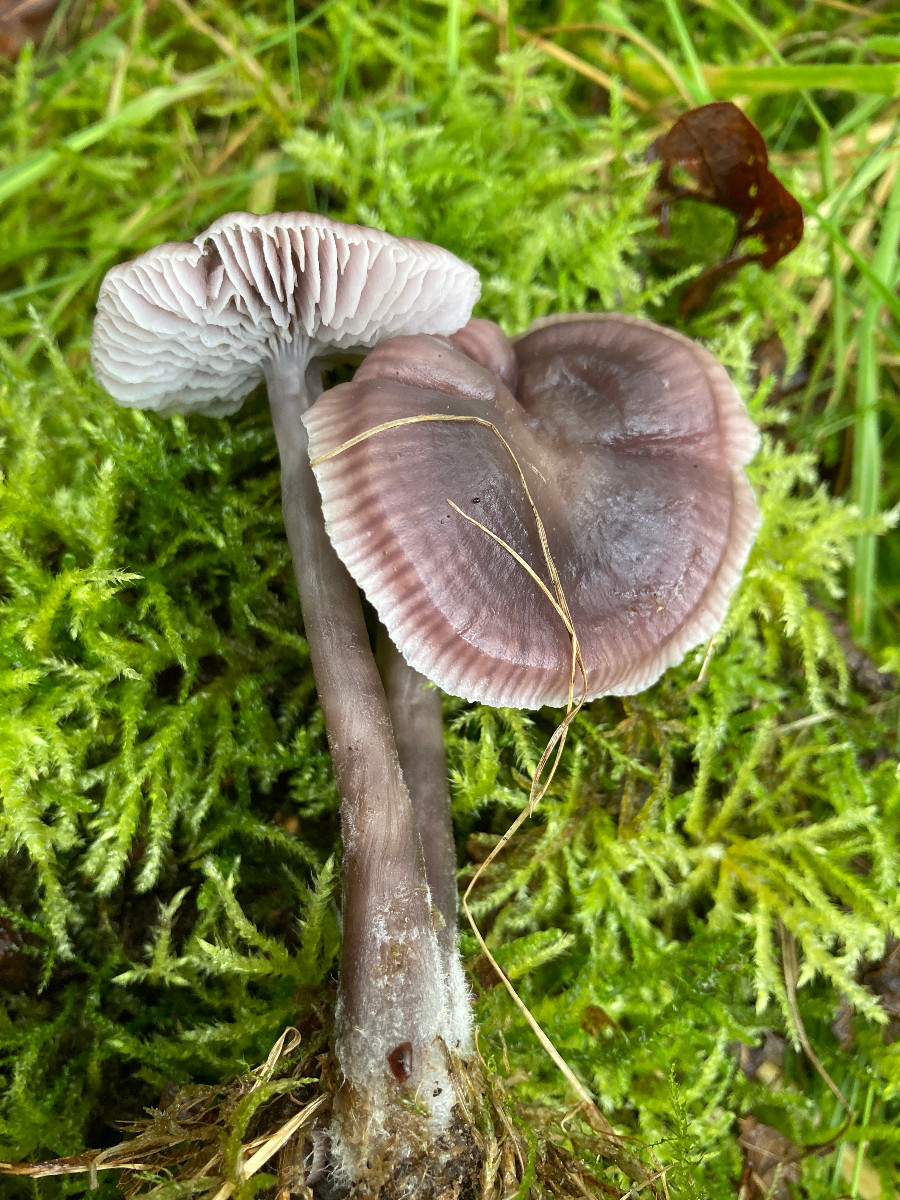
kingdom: Fungi
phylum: Basidiomycota
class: Agaricomycetes
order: Agaricales
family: Mycenaceae
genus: Prunulus
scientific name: Prunulus diosmus
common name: tobaks-huesvamp
